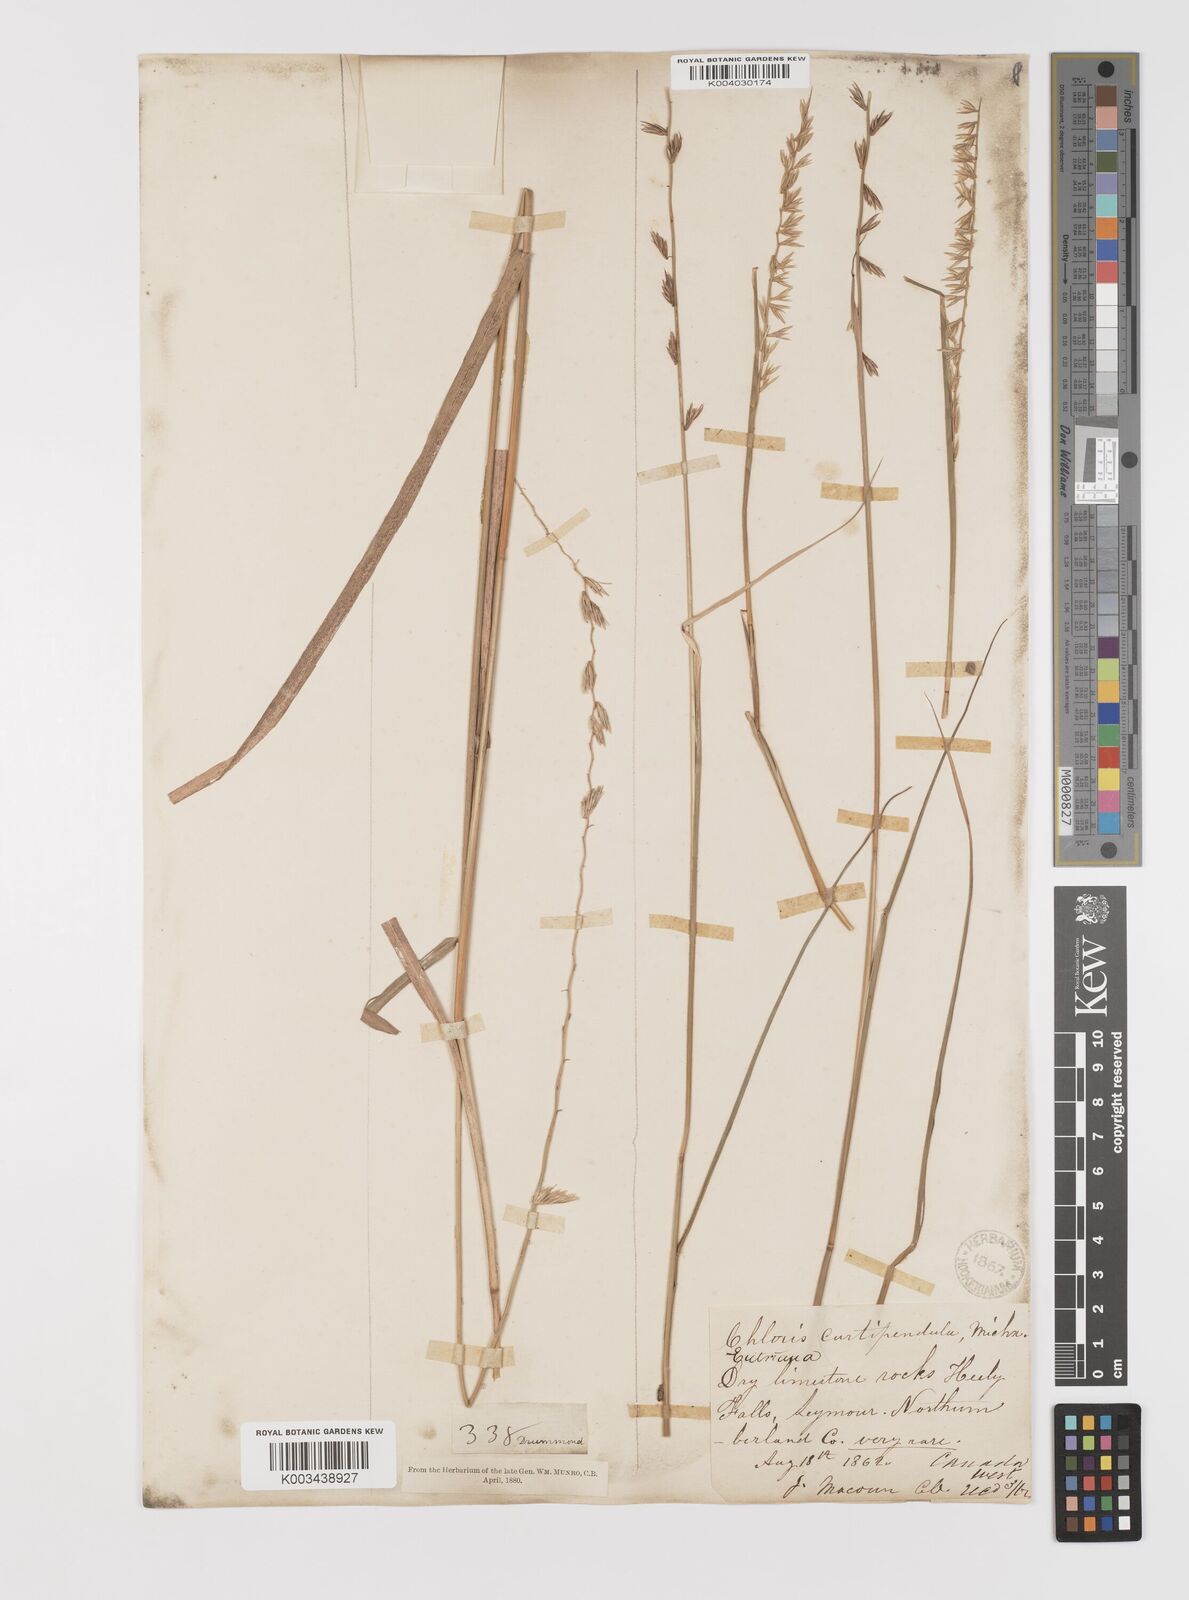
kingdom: Plantae
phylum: Tracheophyta
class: Liliopsida
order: Poales
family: Poaceae
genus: Bouteloua
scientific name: Bouteloua curtipendula
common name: Side-oats grama
